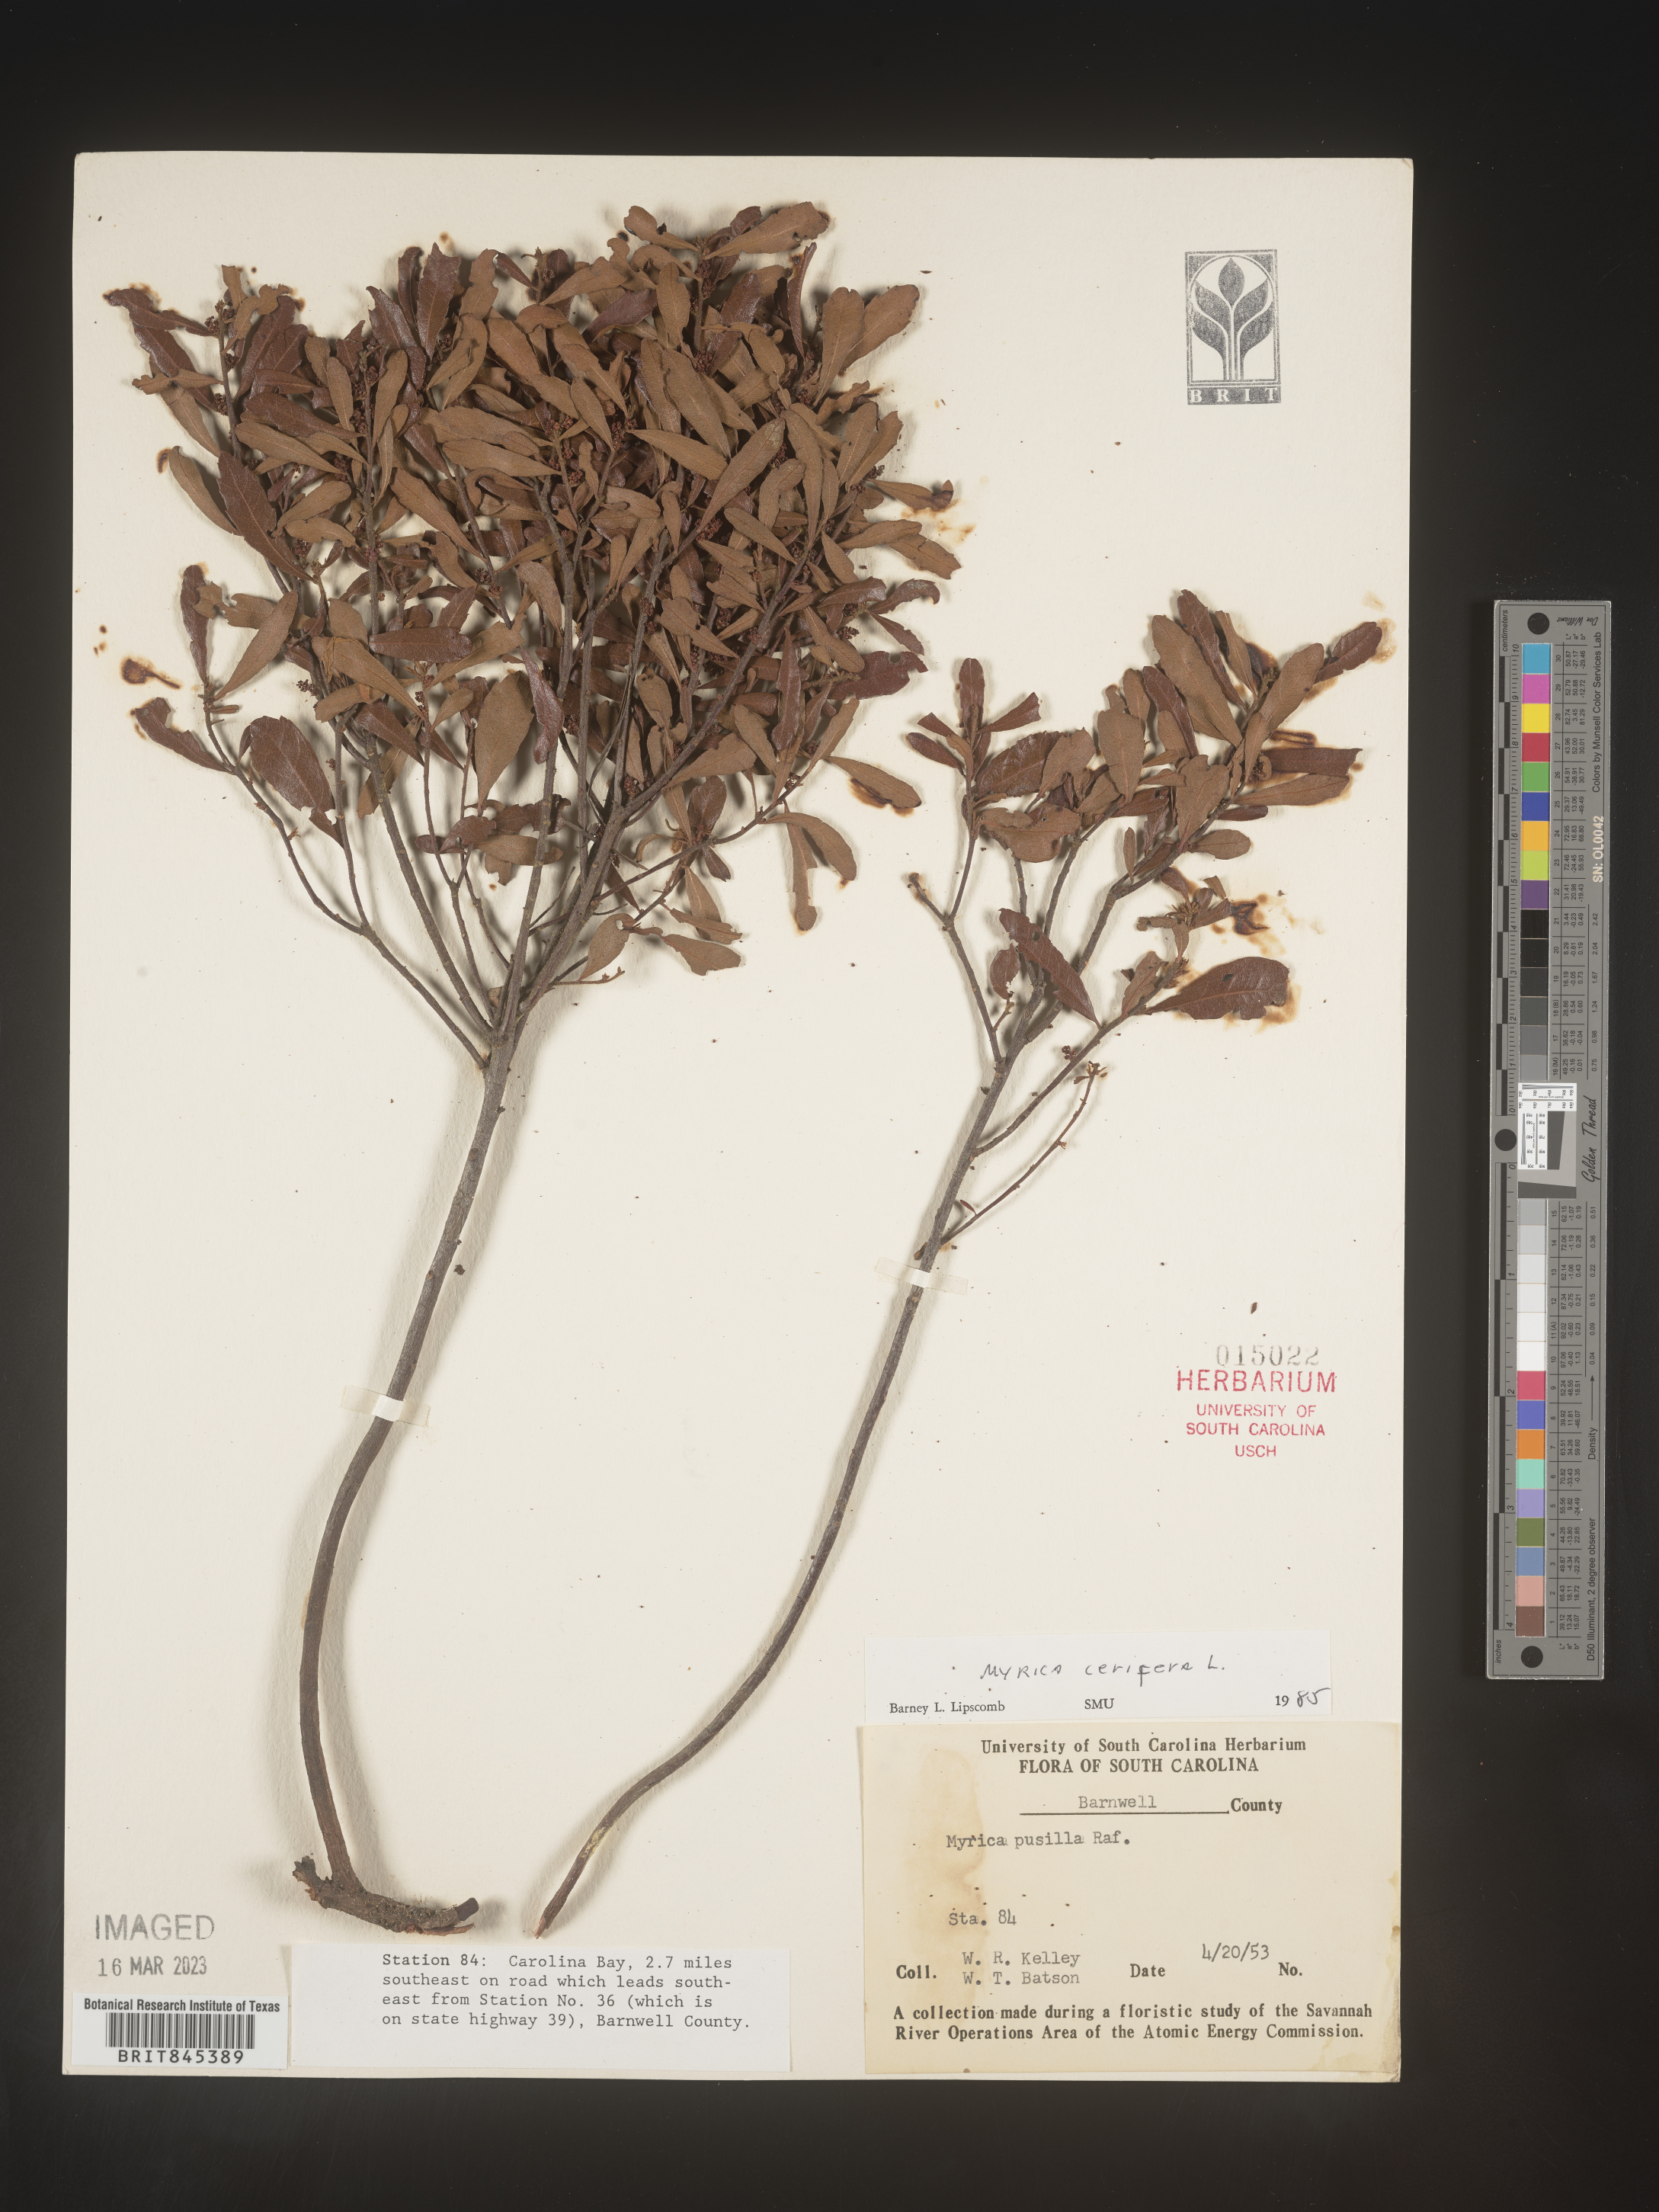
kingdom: Plantae
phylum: Tracheophyta
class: Magnoliopsida
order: Fagales
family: Myricaceae
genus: Morella
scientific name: Morella cerifera
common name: Wax myrtle
